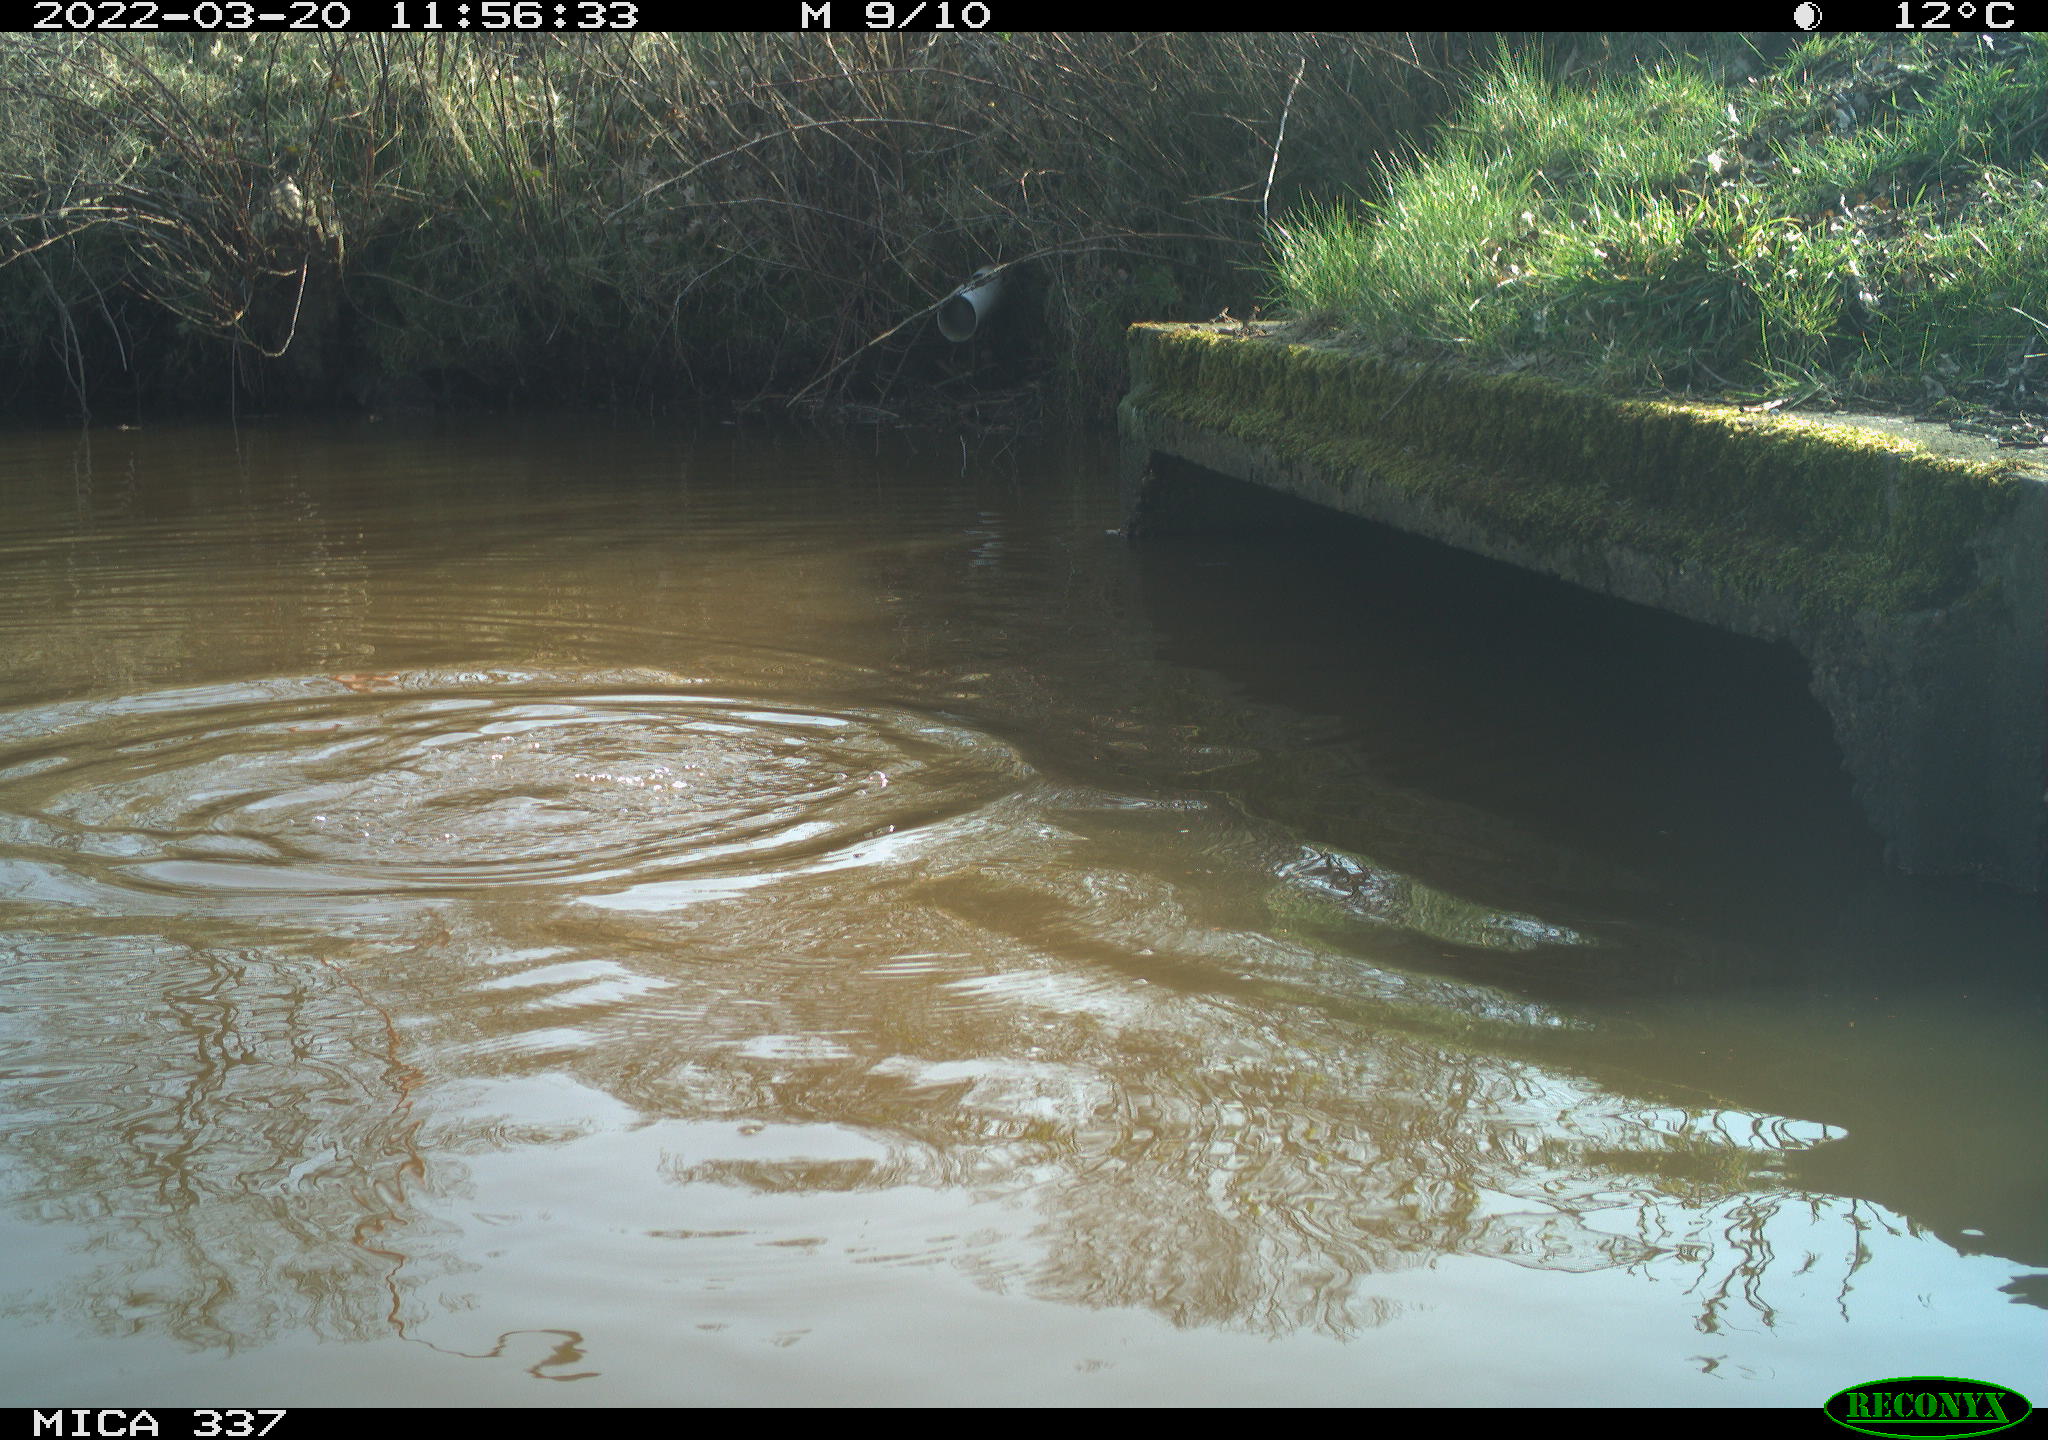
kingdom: Animalia
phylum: Chordata
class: Aves
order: Anseriformes
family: Anatidae
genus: Aythya
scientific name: Aythya fuligula
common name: Tufted duck
